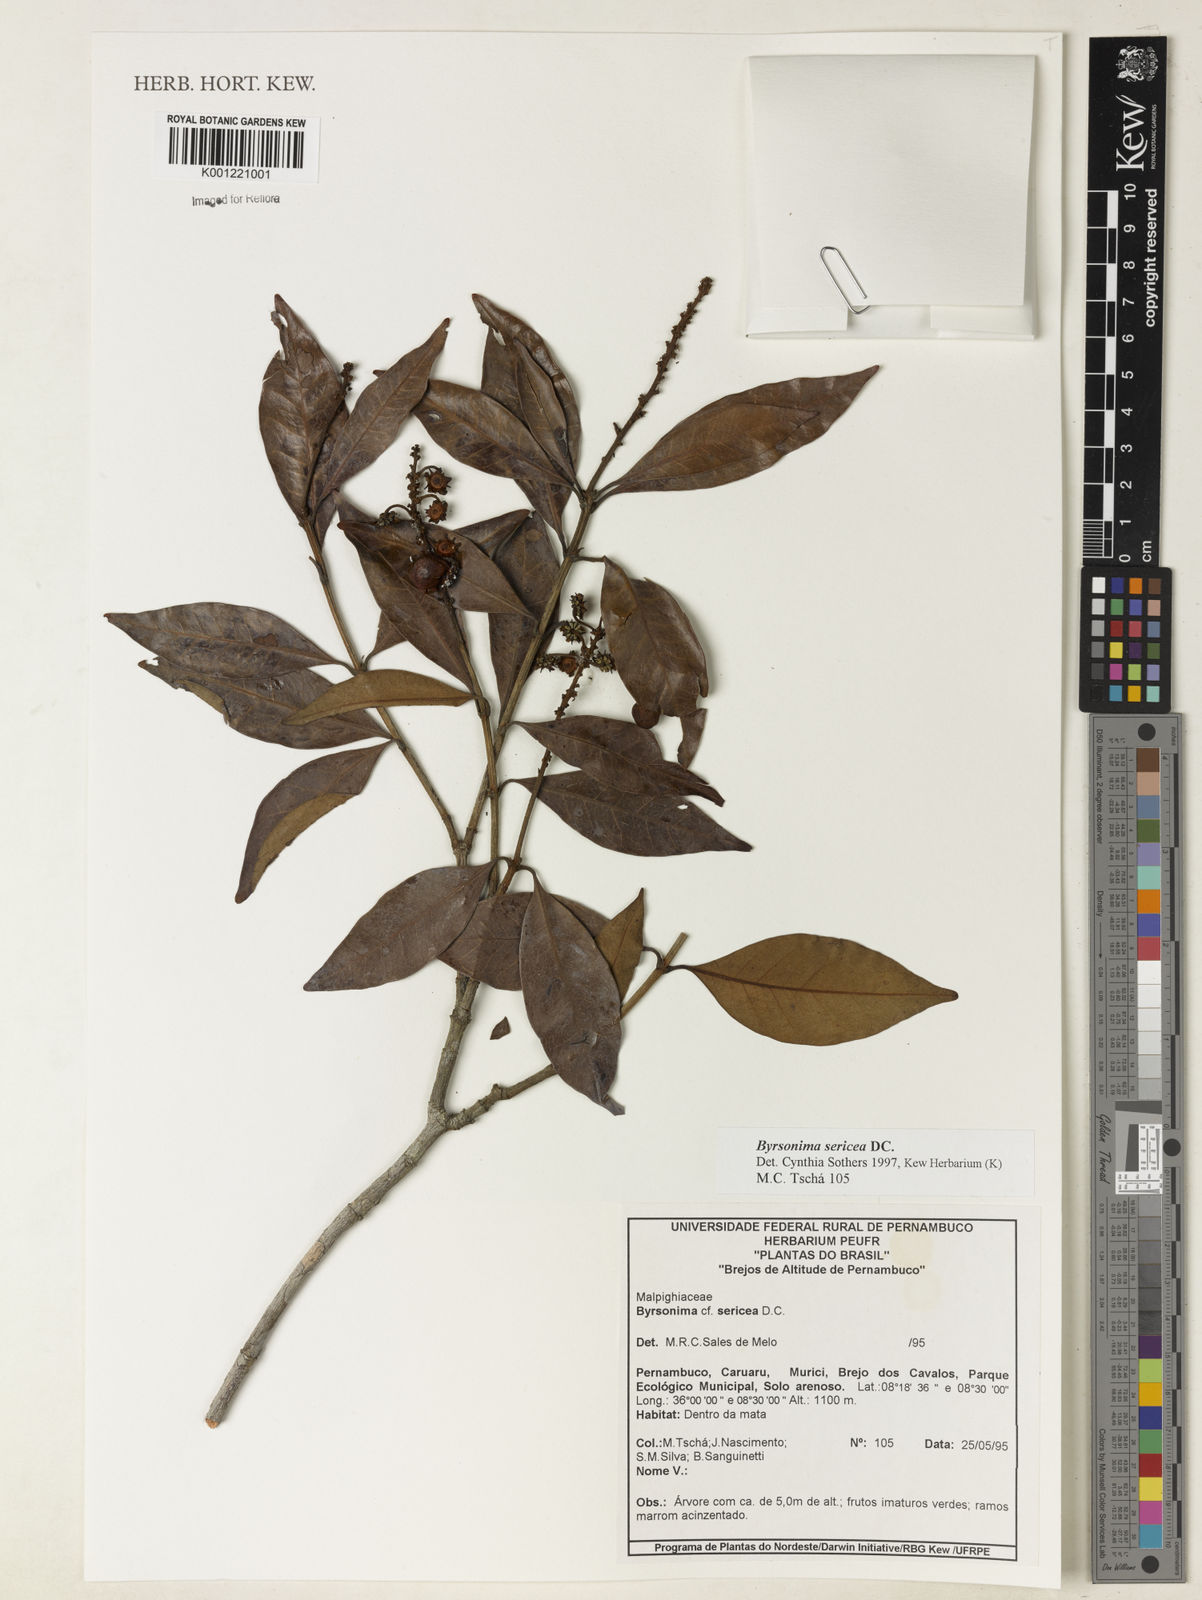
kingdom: Plantae
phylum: Tracheophyta
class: Magnoliopsida
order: Malpighiales
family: Malpighiaceae
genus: Byrsonima
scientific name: Byrsonima sericea
